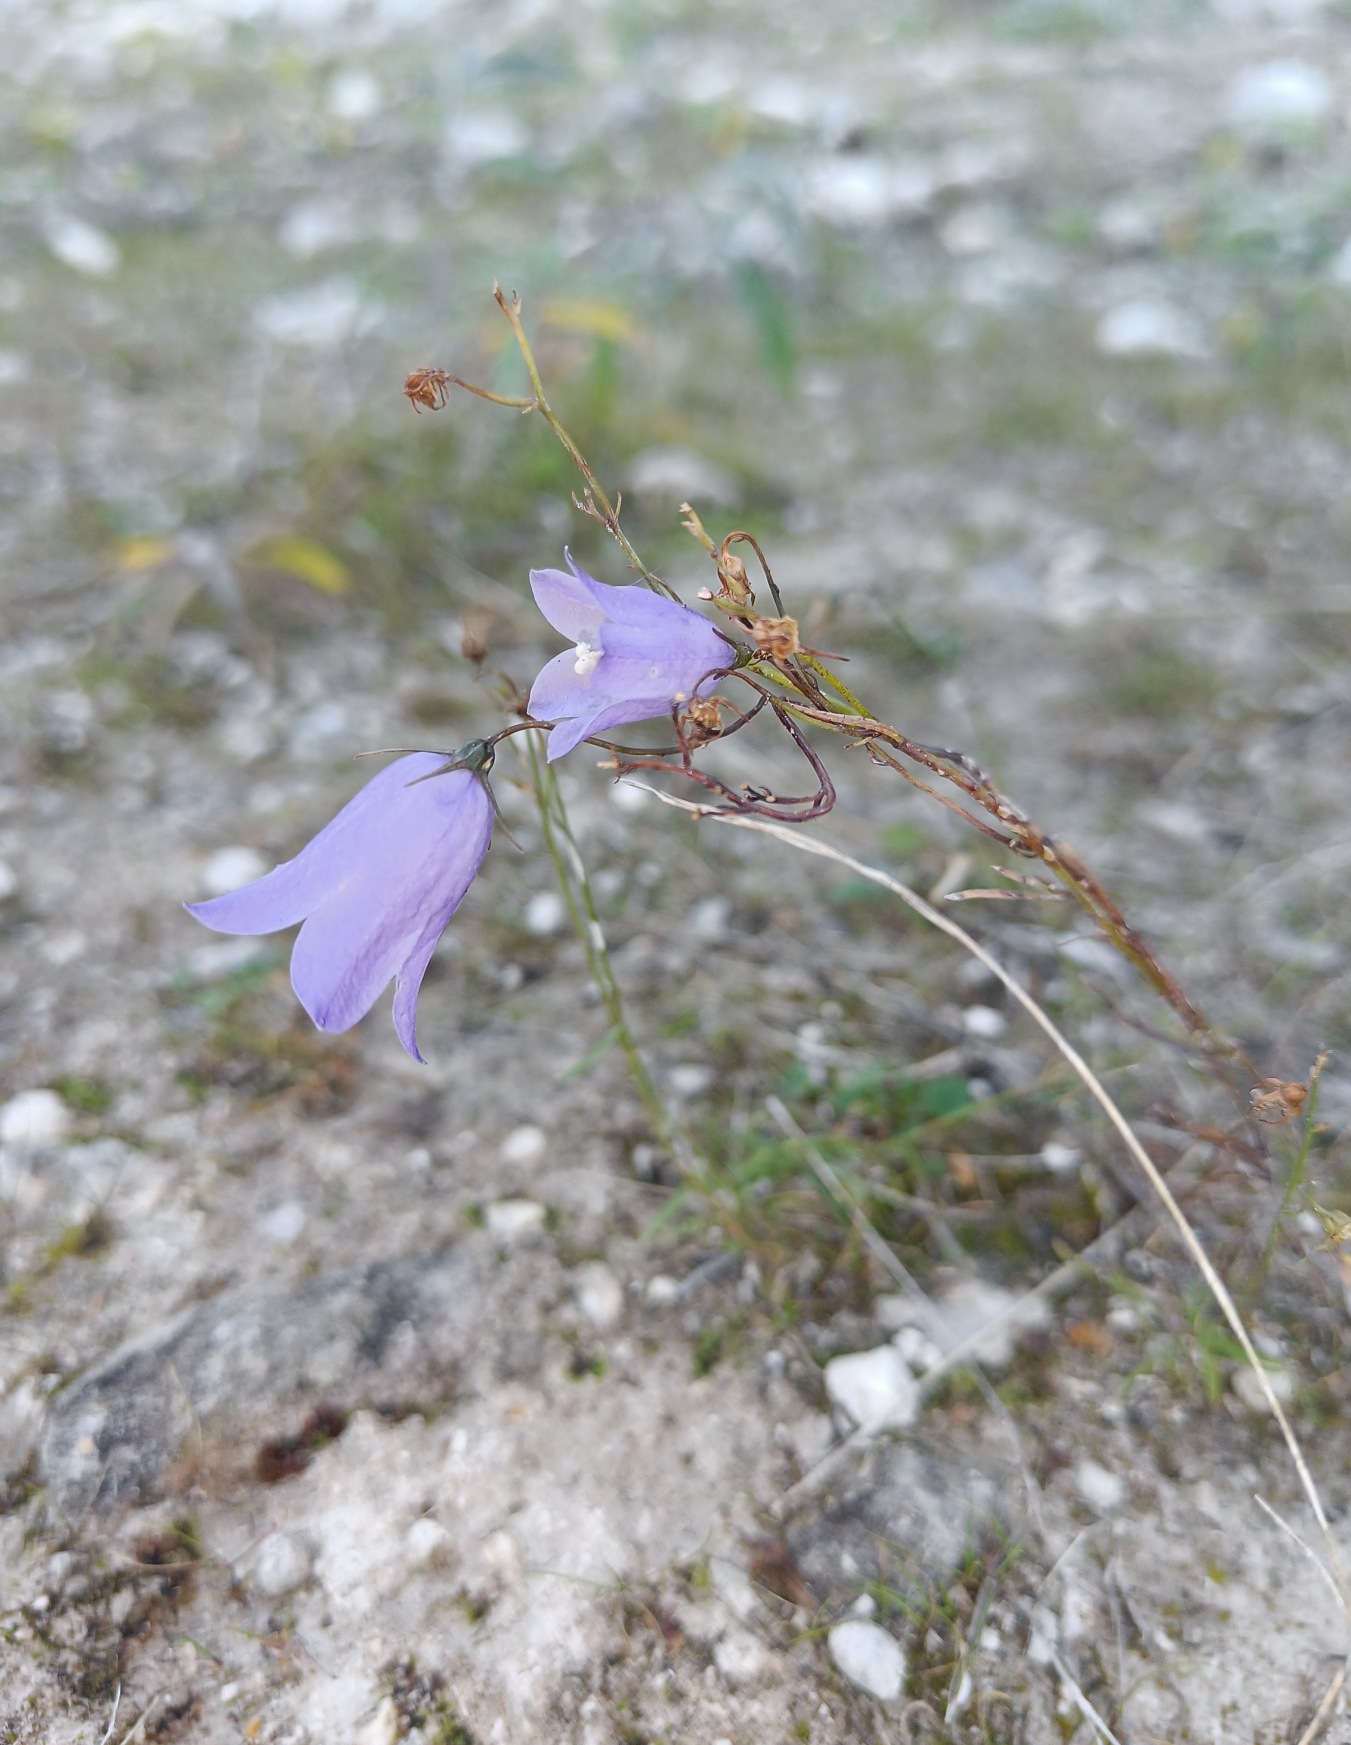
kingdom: Plantae
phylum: Tracheophyta
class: Magnoliopsida
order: Asterales
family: Campanulaceae
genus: Campanula
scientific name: Campanula rotundifolia
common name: Liden klokke
